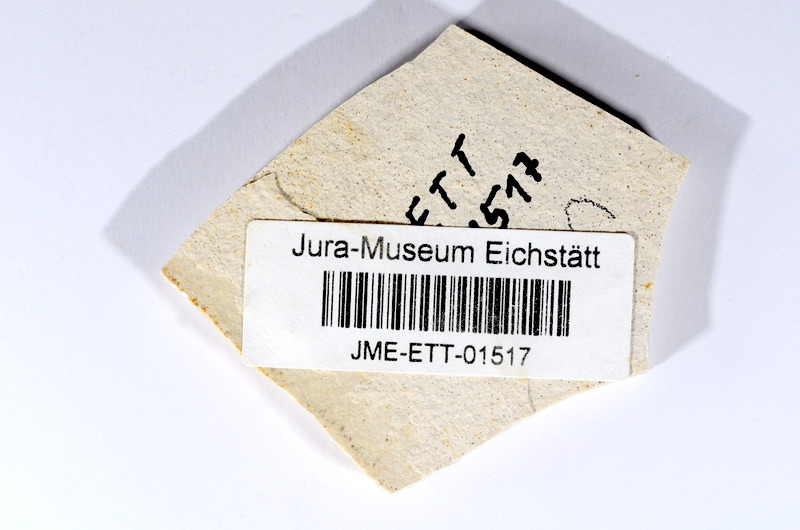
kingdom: Animalia
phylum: Chordata
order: Salmoniformes
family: Orthogonikleithridae
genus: Orthogonikleithrus
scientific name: Orthogonikleithrus hoelli
